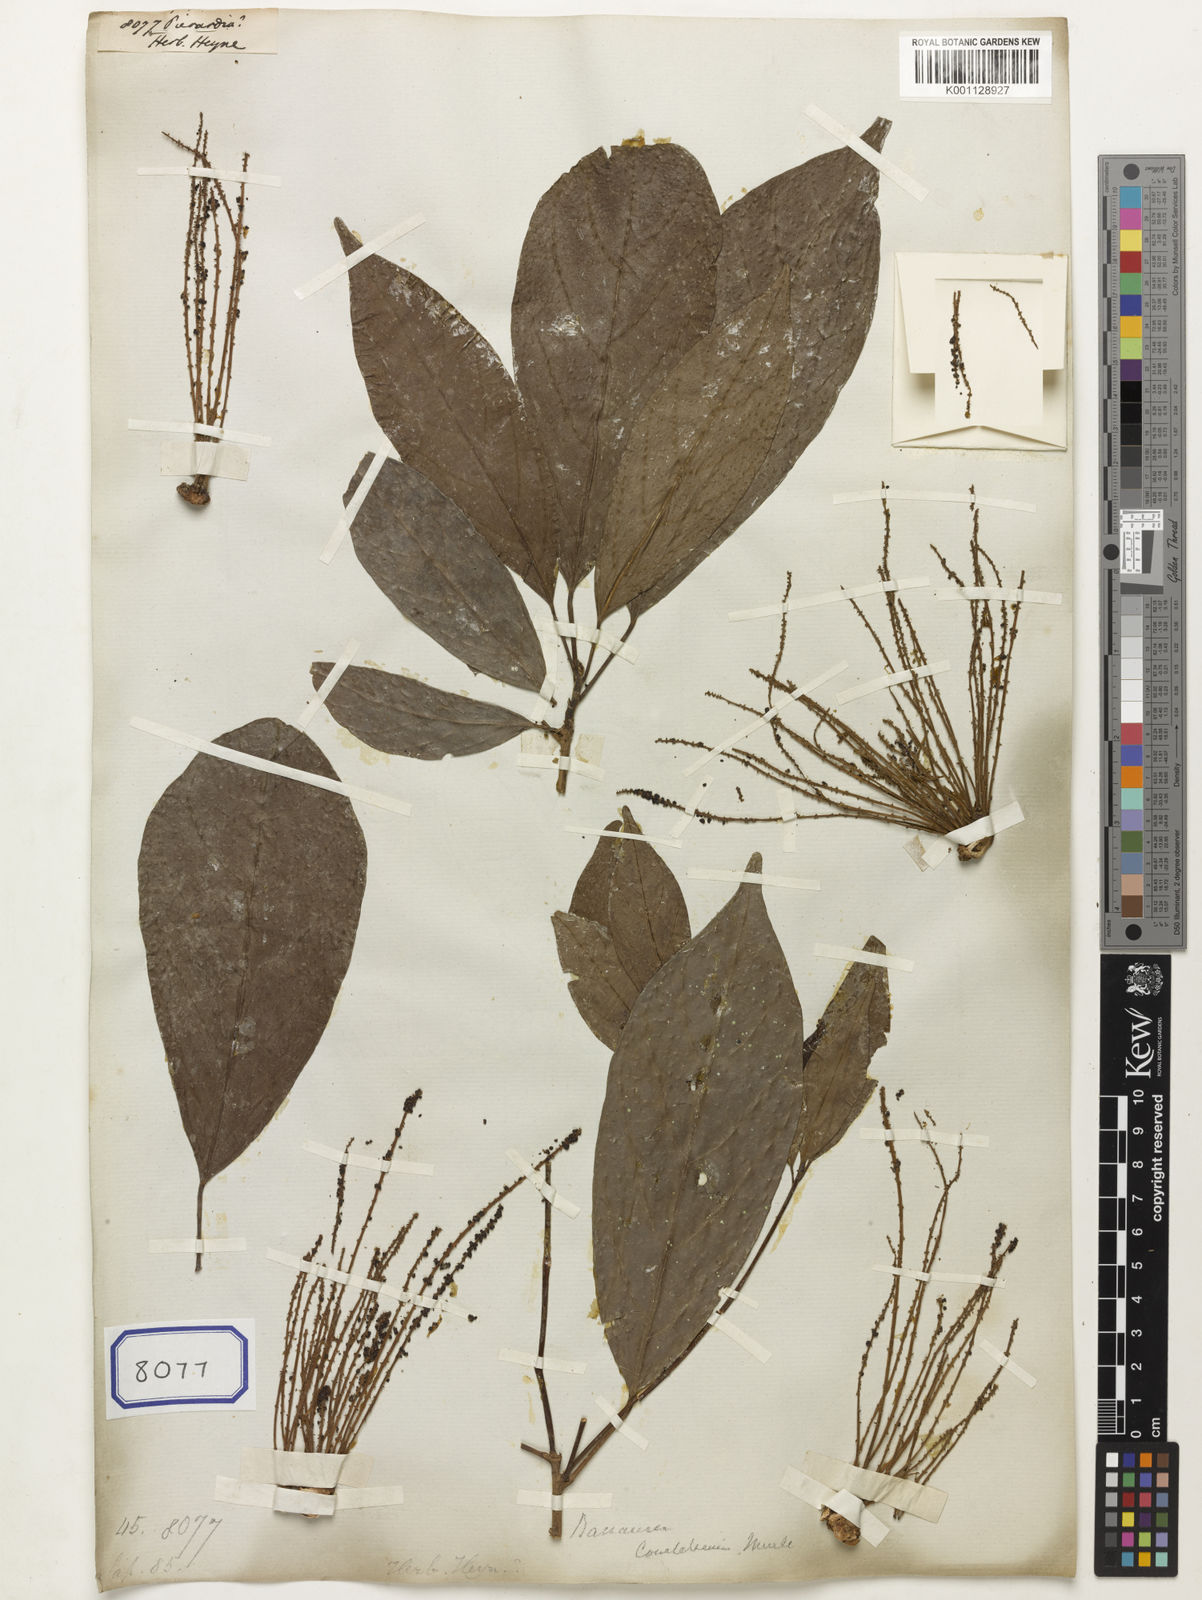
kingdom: Plantae
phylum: Tracheophyta
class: Magnoliopsida
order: Malpighiales
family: Phyllanthaceae
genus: Baccaurea
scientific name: Baccaurea
